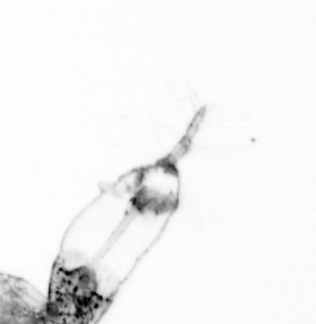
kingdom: Animalia
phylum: Arthropoda
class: Copepoda
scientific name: Copepoda
